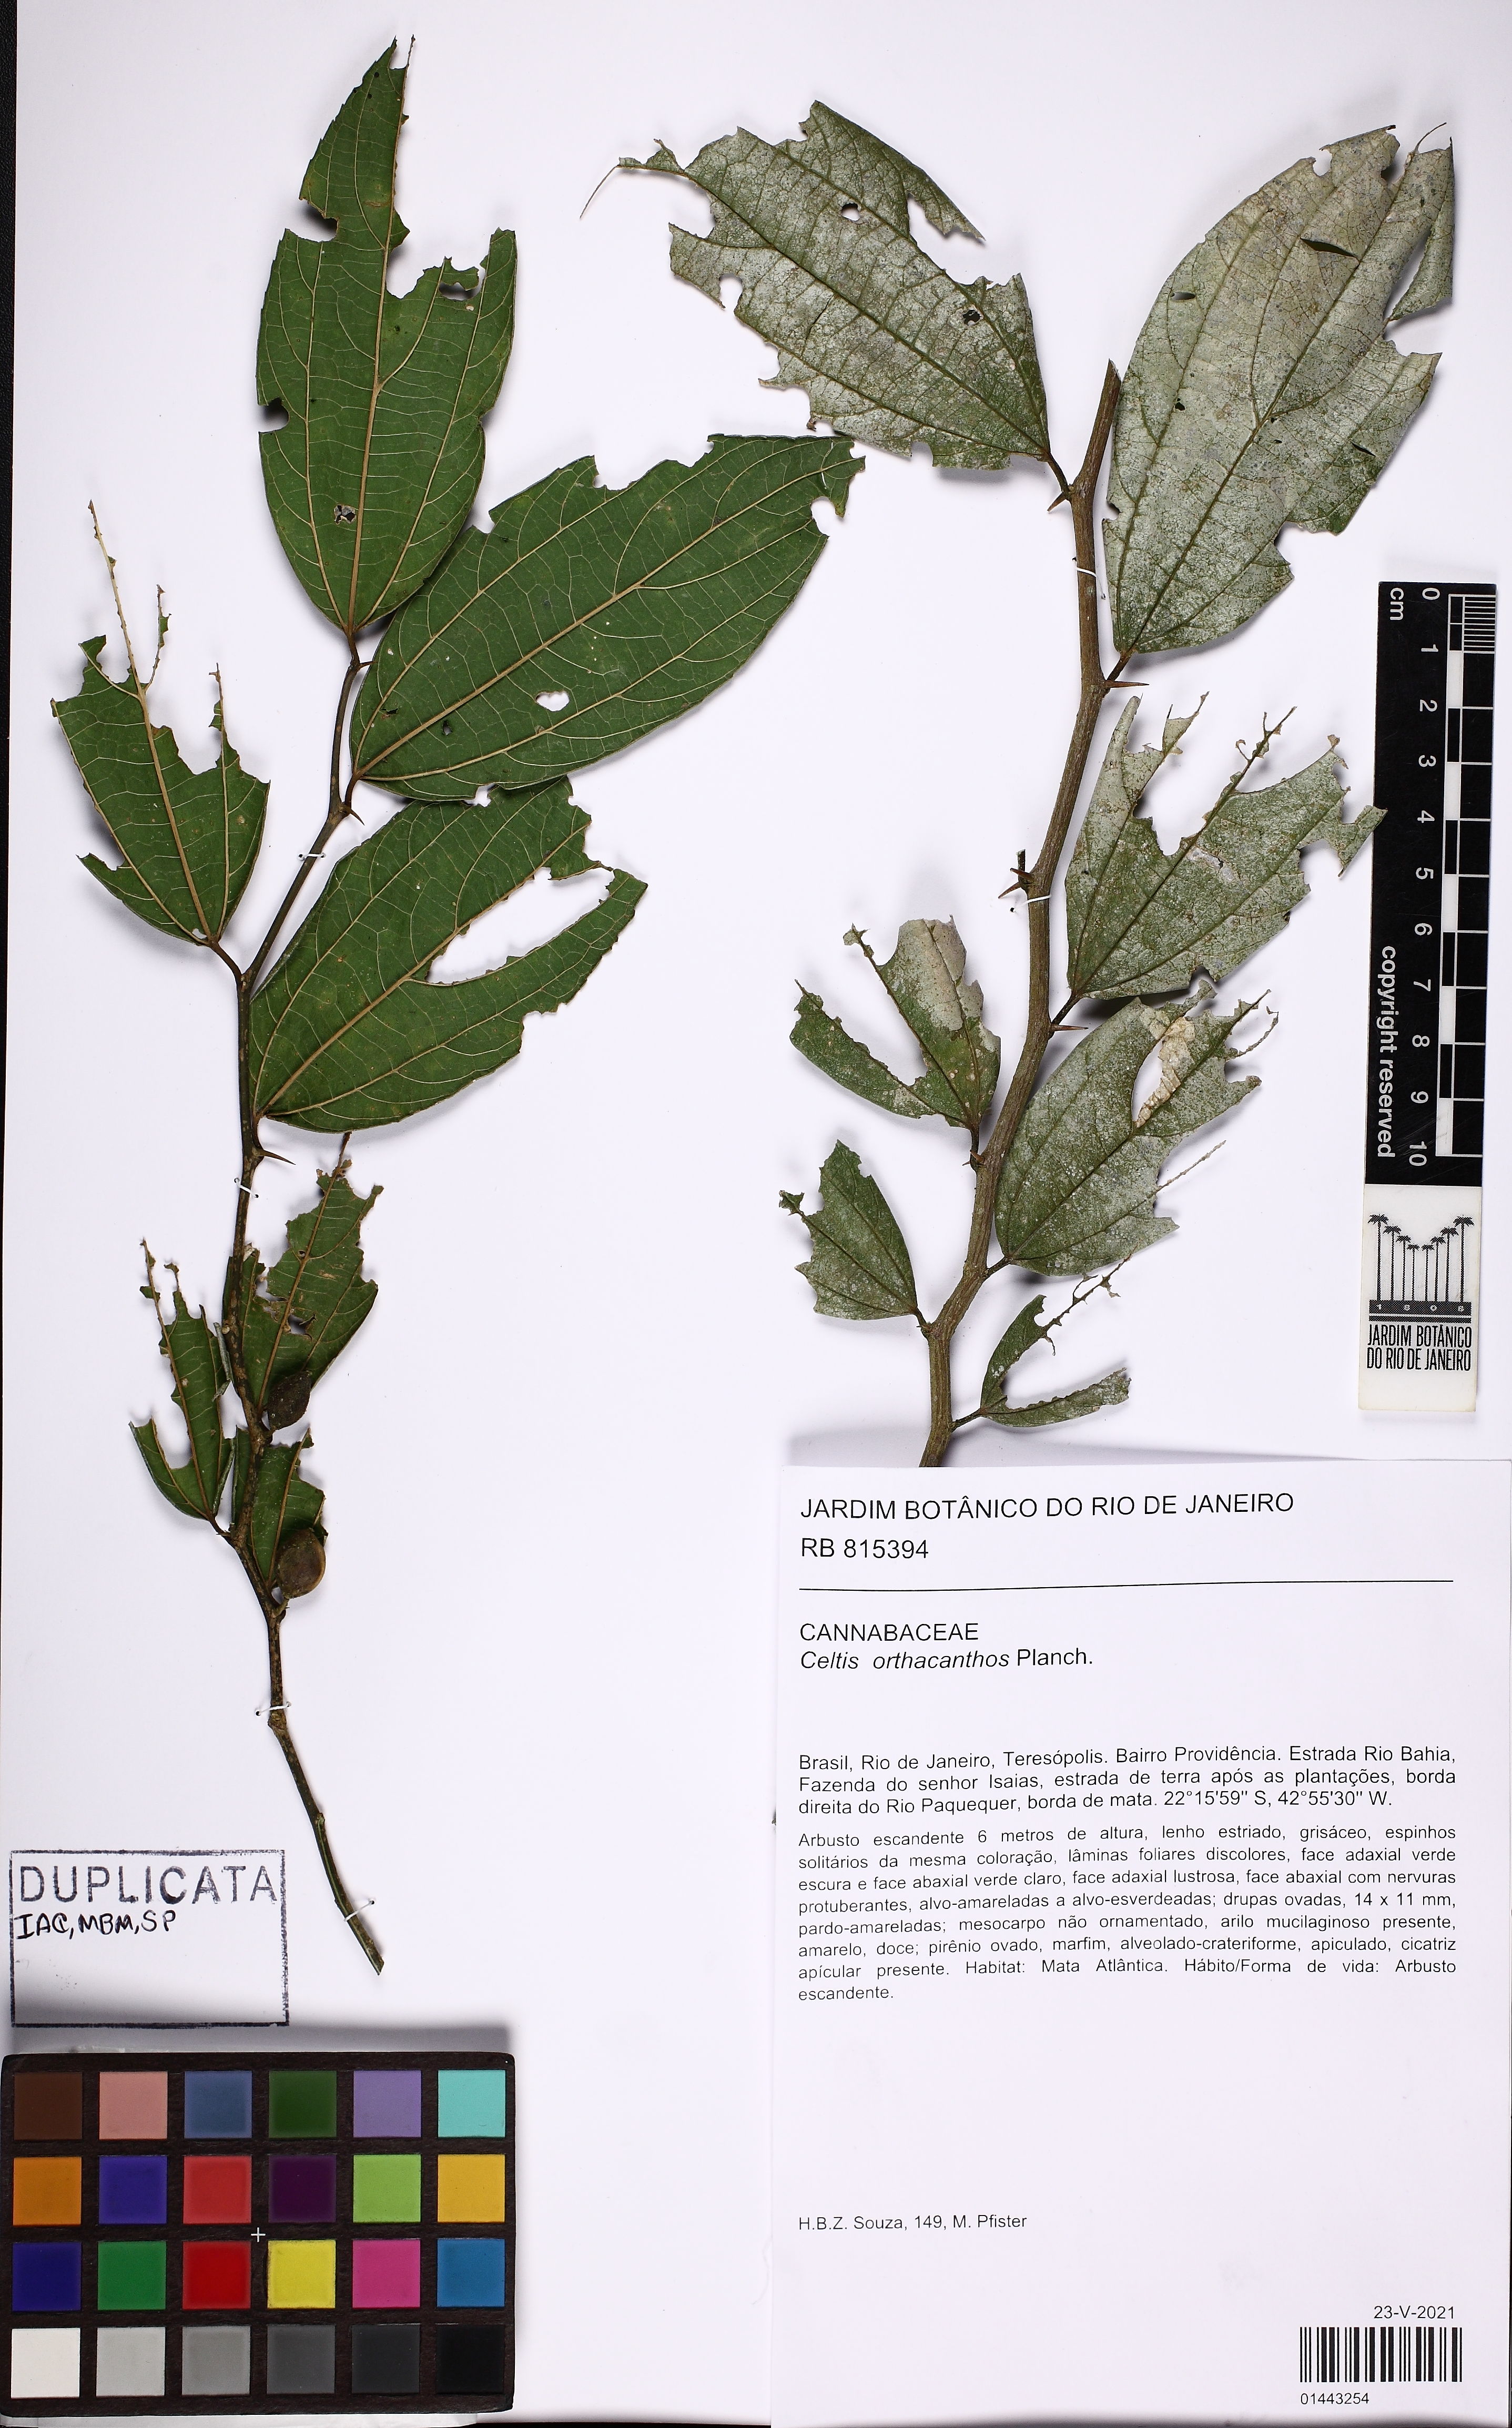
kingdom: Plantae
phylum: Tracheophyta
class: Magnoliopsida
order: Rosales
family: Cannabaceae
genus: Celtis
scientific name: Celtis orthacanthos
